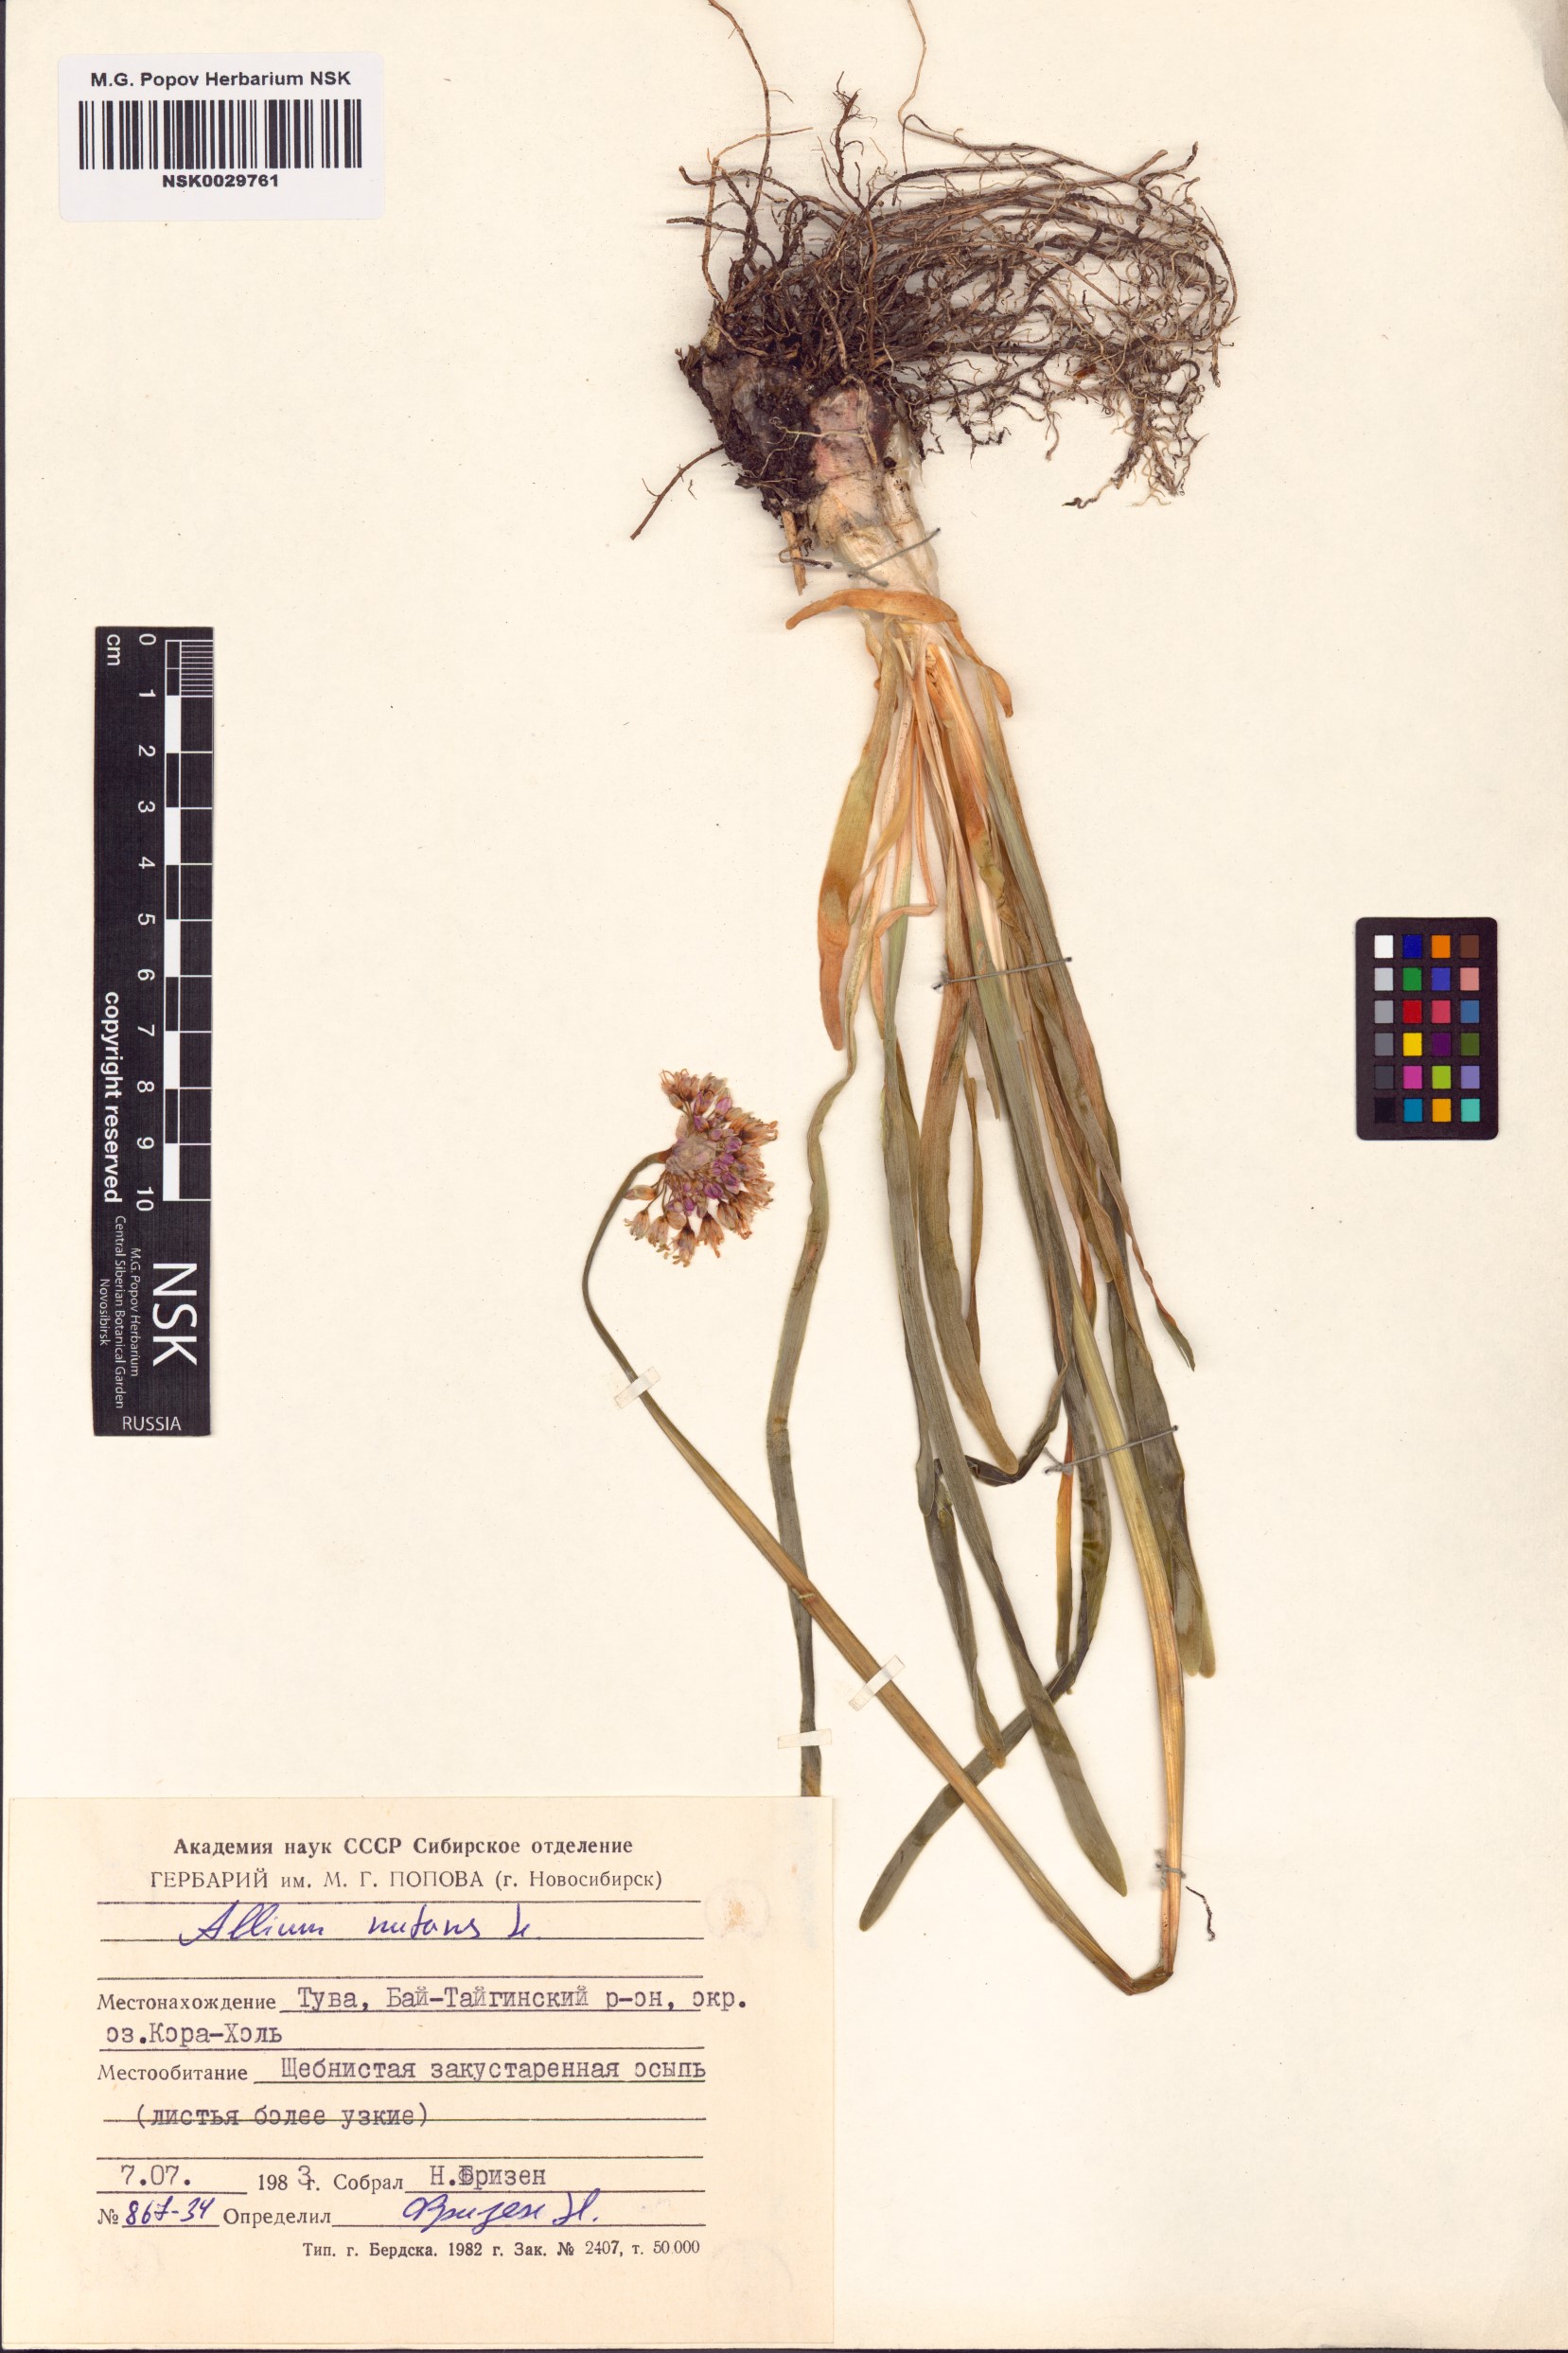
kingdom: Plantae
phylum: Tracheophyta
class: Liliopsida
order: Asparagales
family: Amaryllidaceae
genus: Allium
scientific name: Allium nutans
